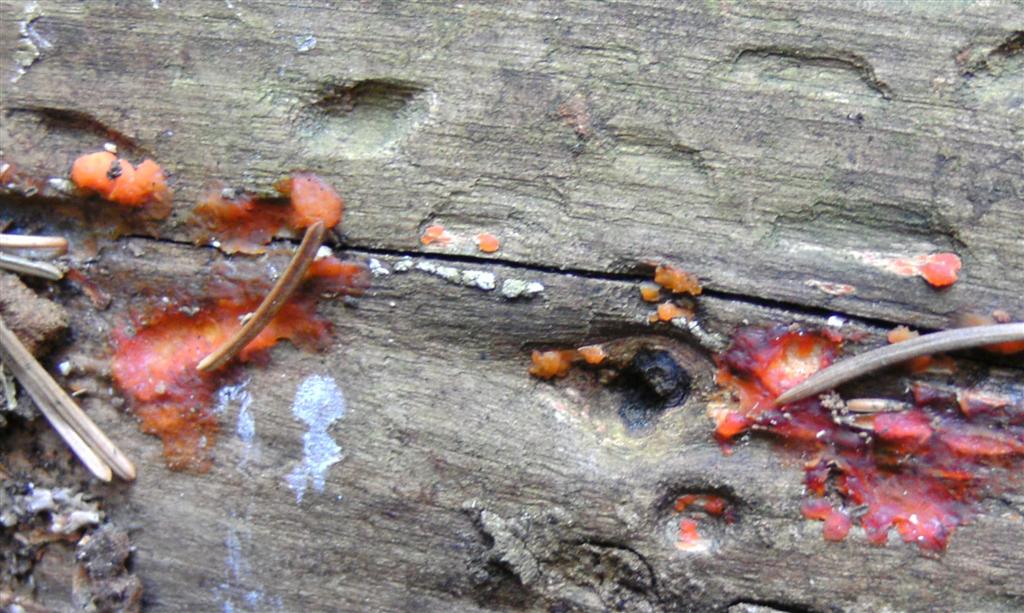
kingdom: Fungi
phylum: Basidiomycota
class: Dacrymycetes
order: Dacrymycetales
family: Dacrymycetaceae
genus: Dacrymyces
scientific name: Dacrymyces stillatus
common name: almindelig tåresvamp
